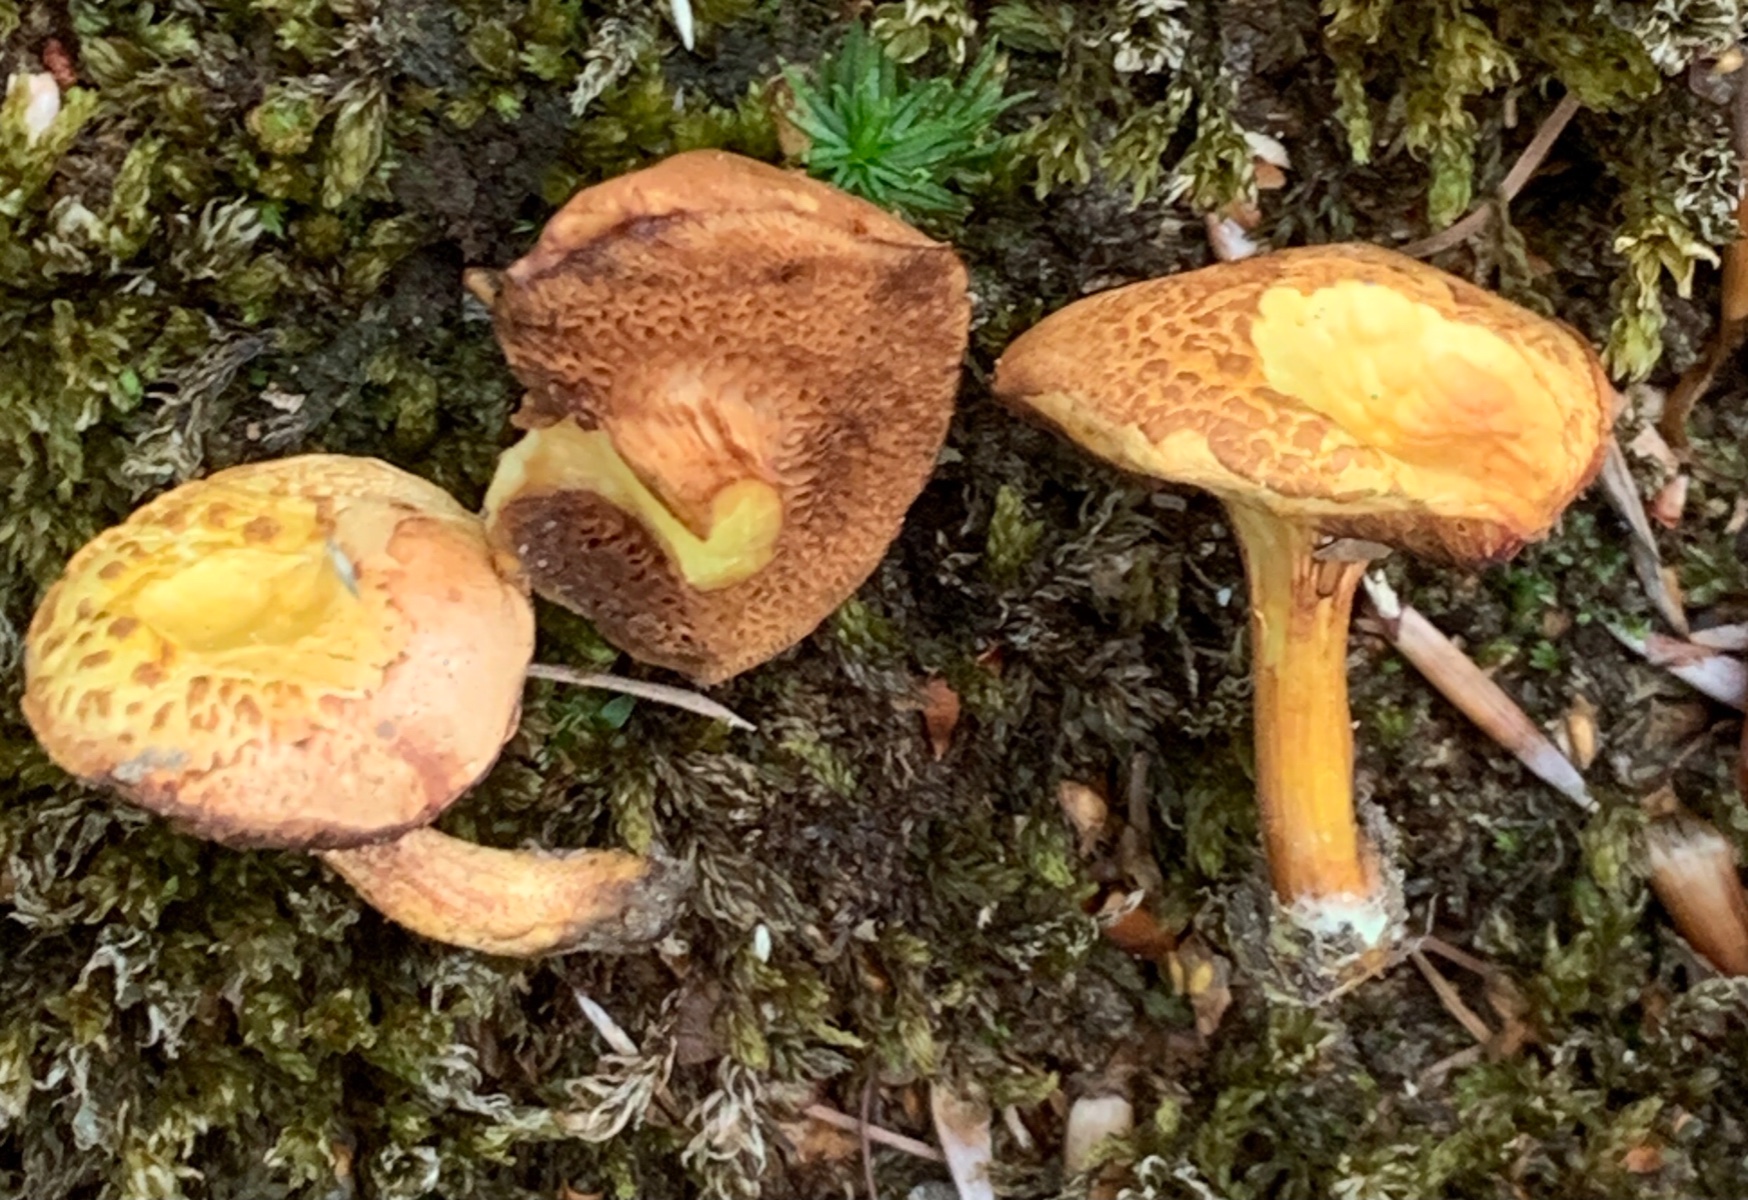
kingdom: Fungi
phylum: Basidiomycota
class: Agaricomycetes
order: Boletales
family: Boletaceae
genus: Chalciporus
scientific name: Chalciporus piperatus
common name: peberrørhat
